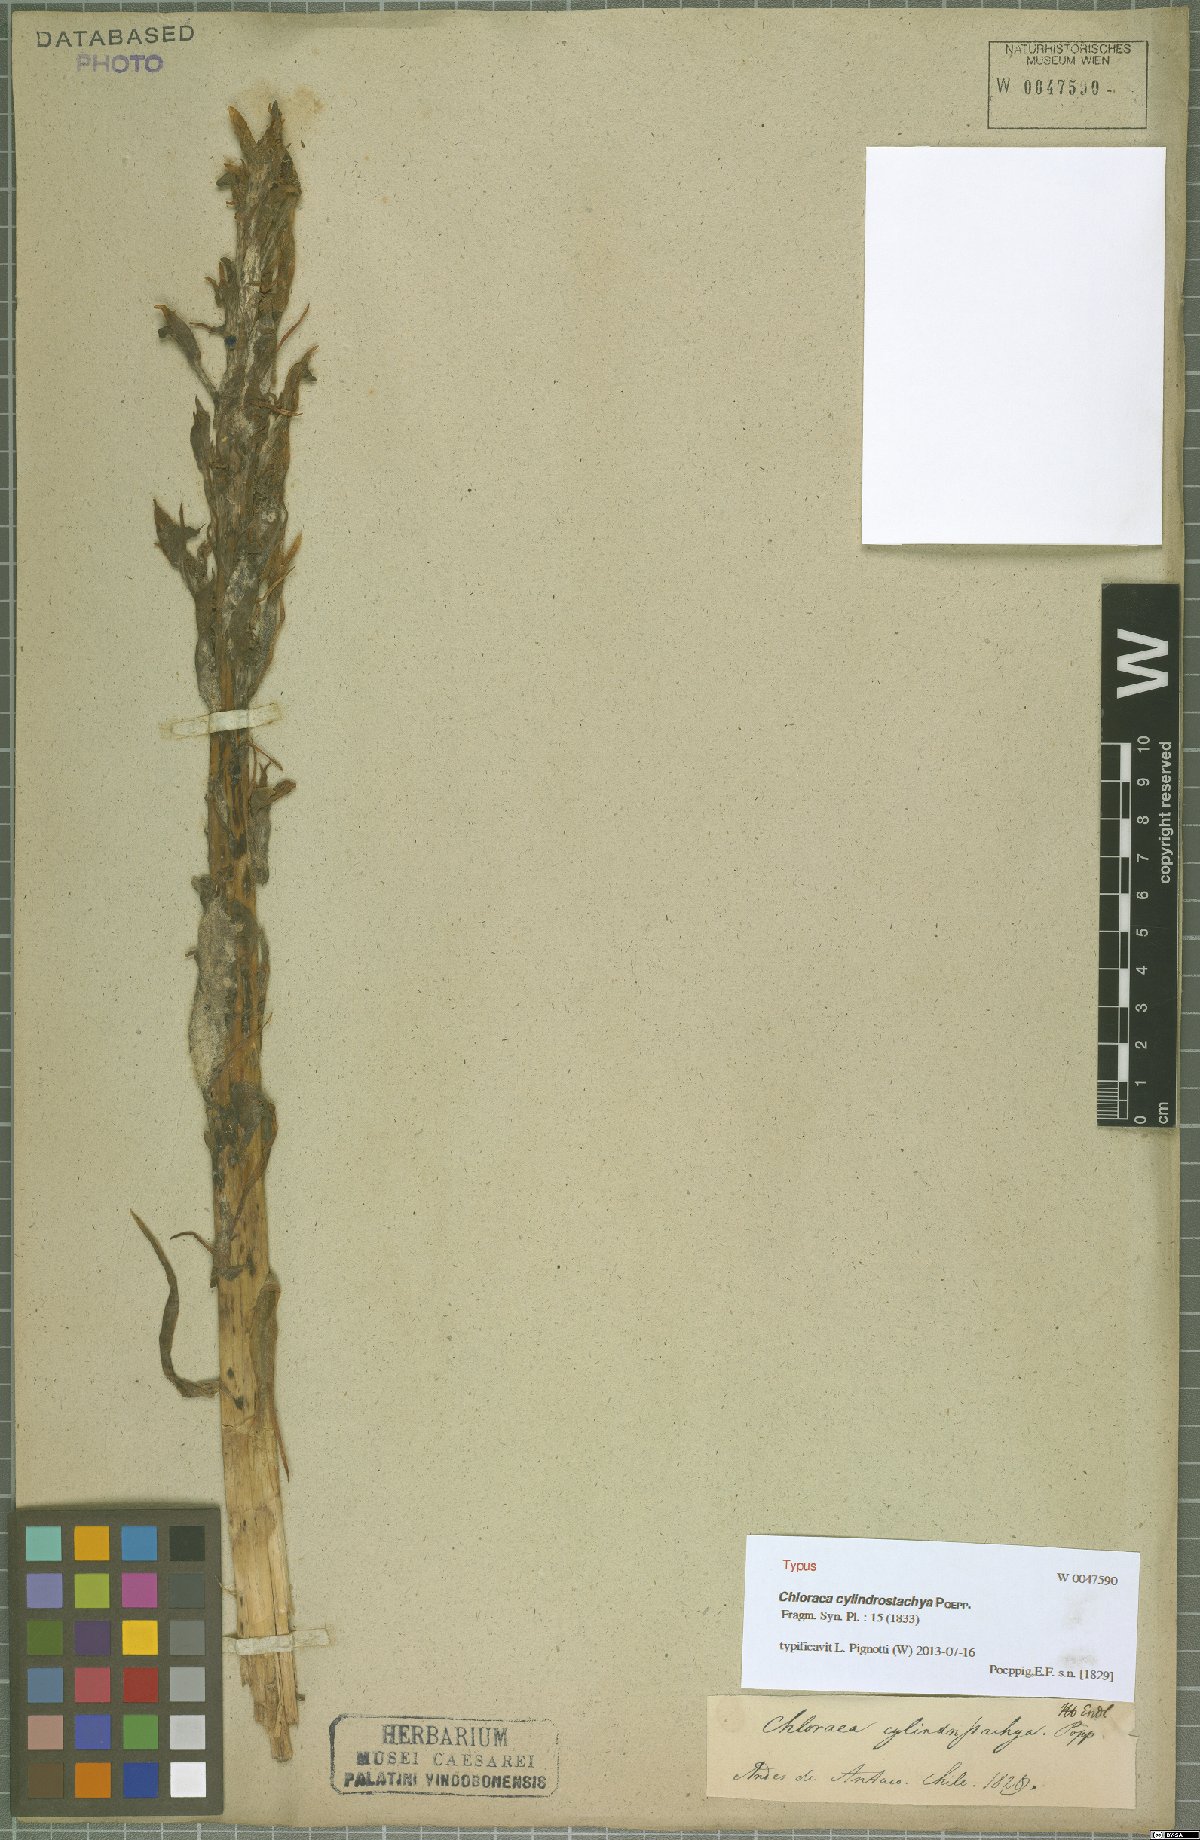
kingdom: Plantae
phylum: Tracheophyta
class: Liliopsida
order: Asparagales
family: Orchidaceae
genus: Chloraea
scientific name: Chloraea cylindrostachya
